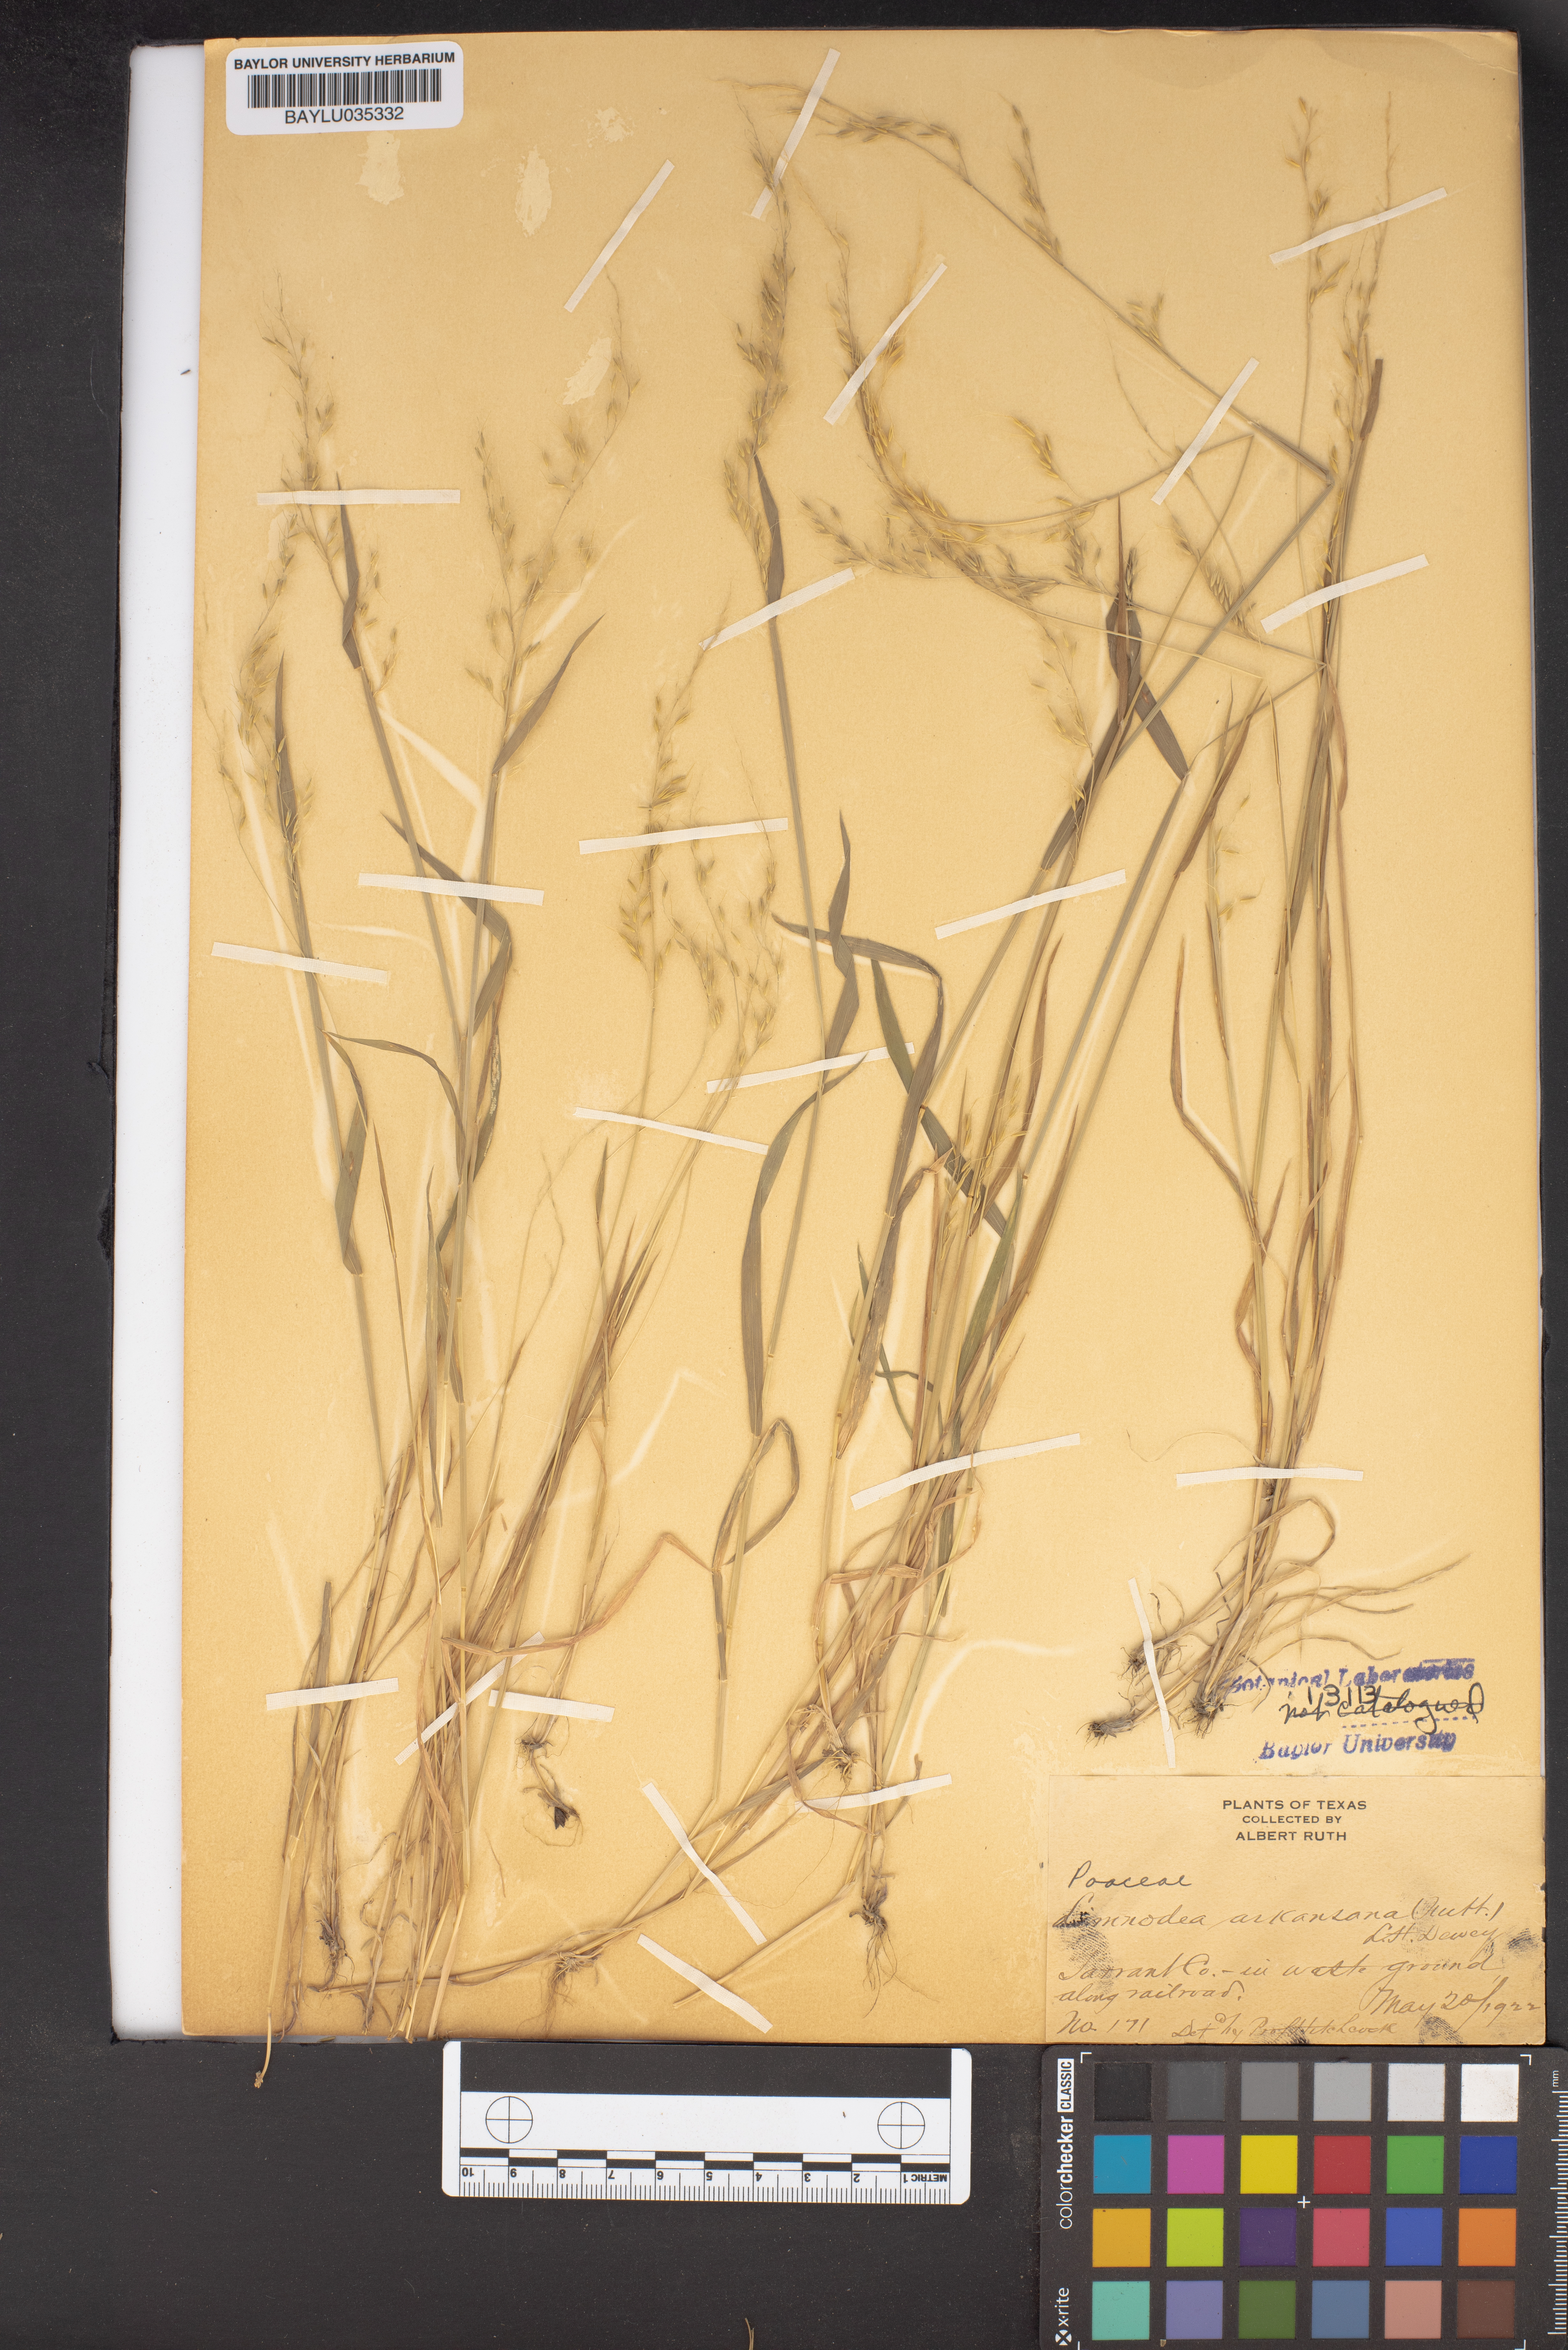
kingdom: Plantae
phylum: Tracheophyta
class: Liliopsida
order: Poales
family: Poaceae
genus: Limnodea
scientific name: Limnodea arkansana
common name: Ozark-grass
